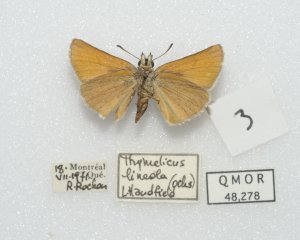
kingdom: Animalia
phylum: Arthropoda
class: Insecta
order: Lepidoptera
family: Hesperiidae
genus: Thymelicus
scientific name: Thymelicus lineola
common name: European Skipper
